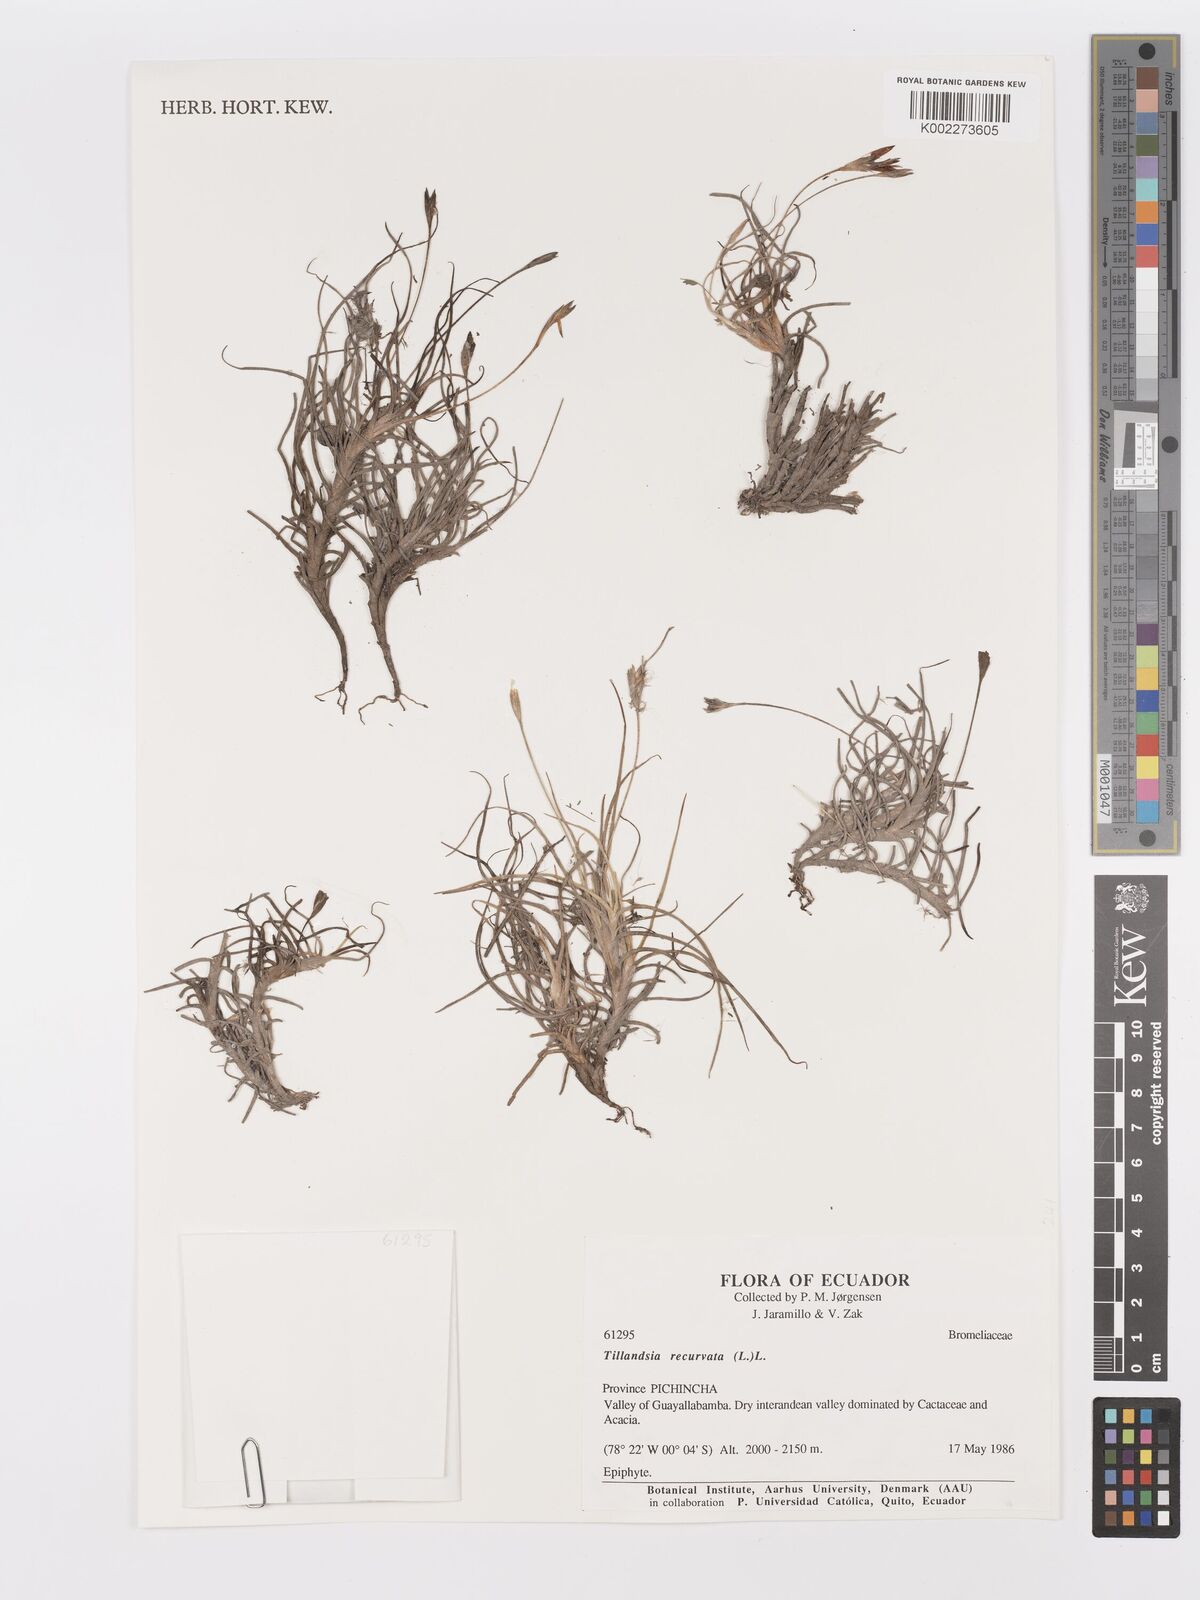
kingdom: Plantae
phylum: Tracheophyta
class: Liliopsida
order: Poales
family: Bromeliaceae
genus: Tillandsia
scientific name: Tillandsia recurvata
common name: Small ballmoss
